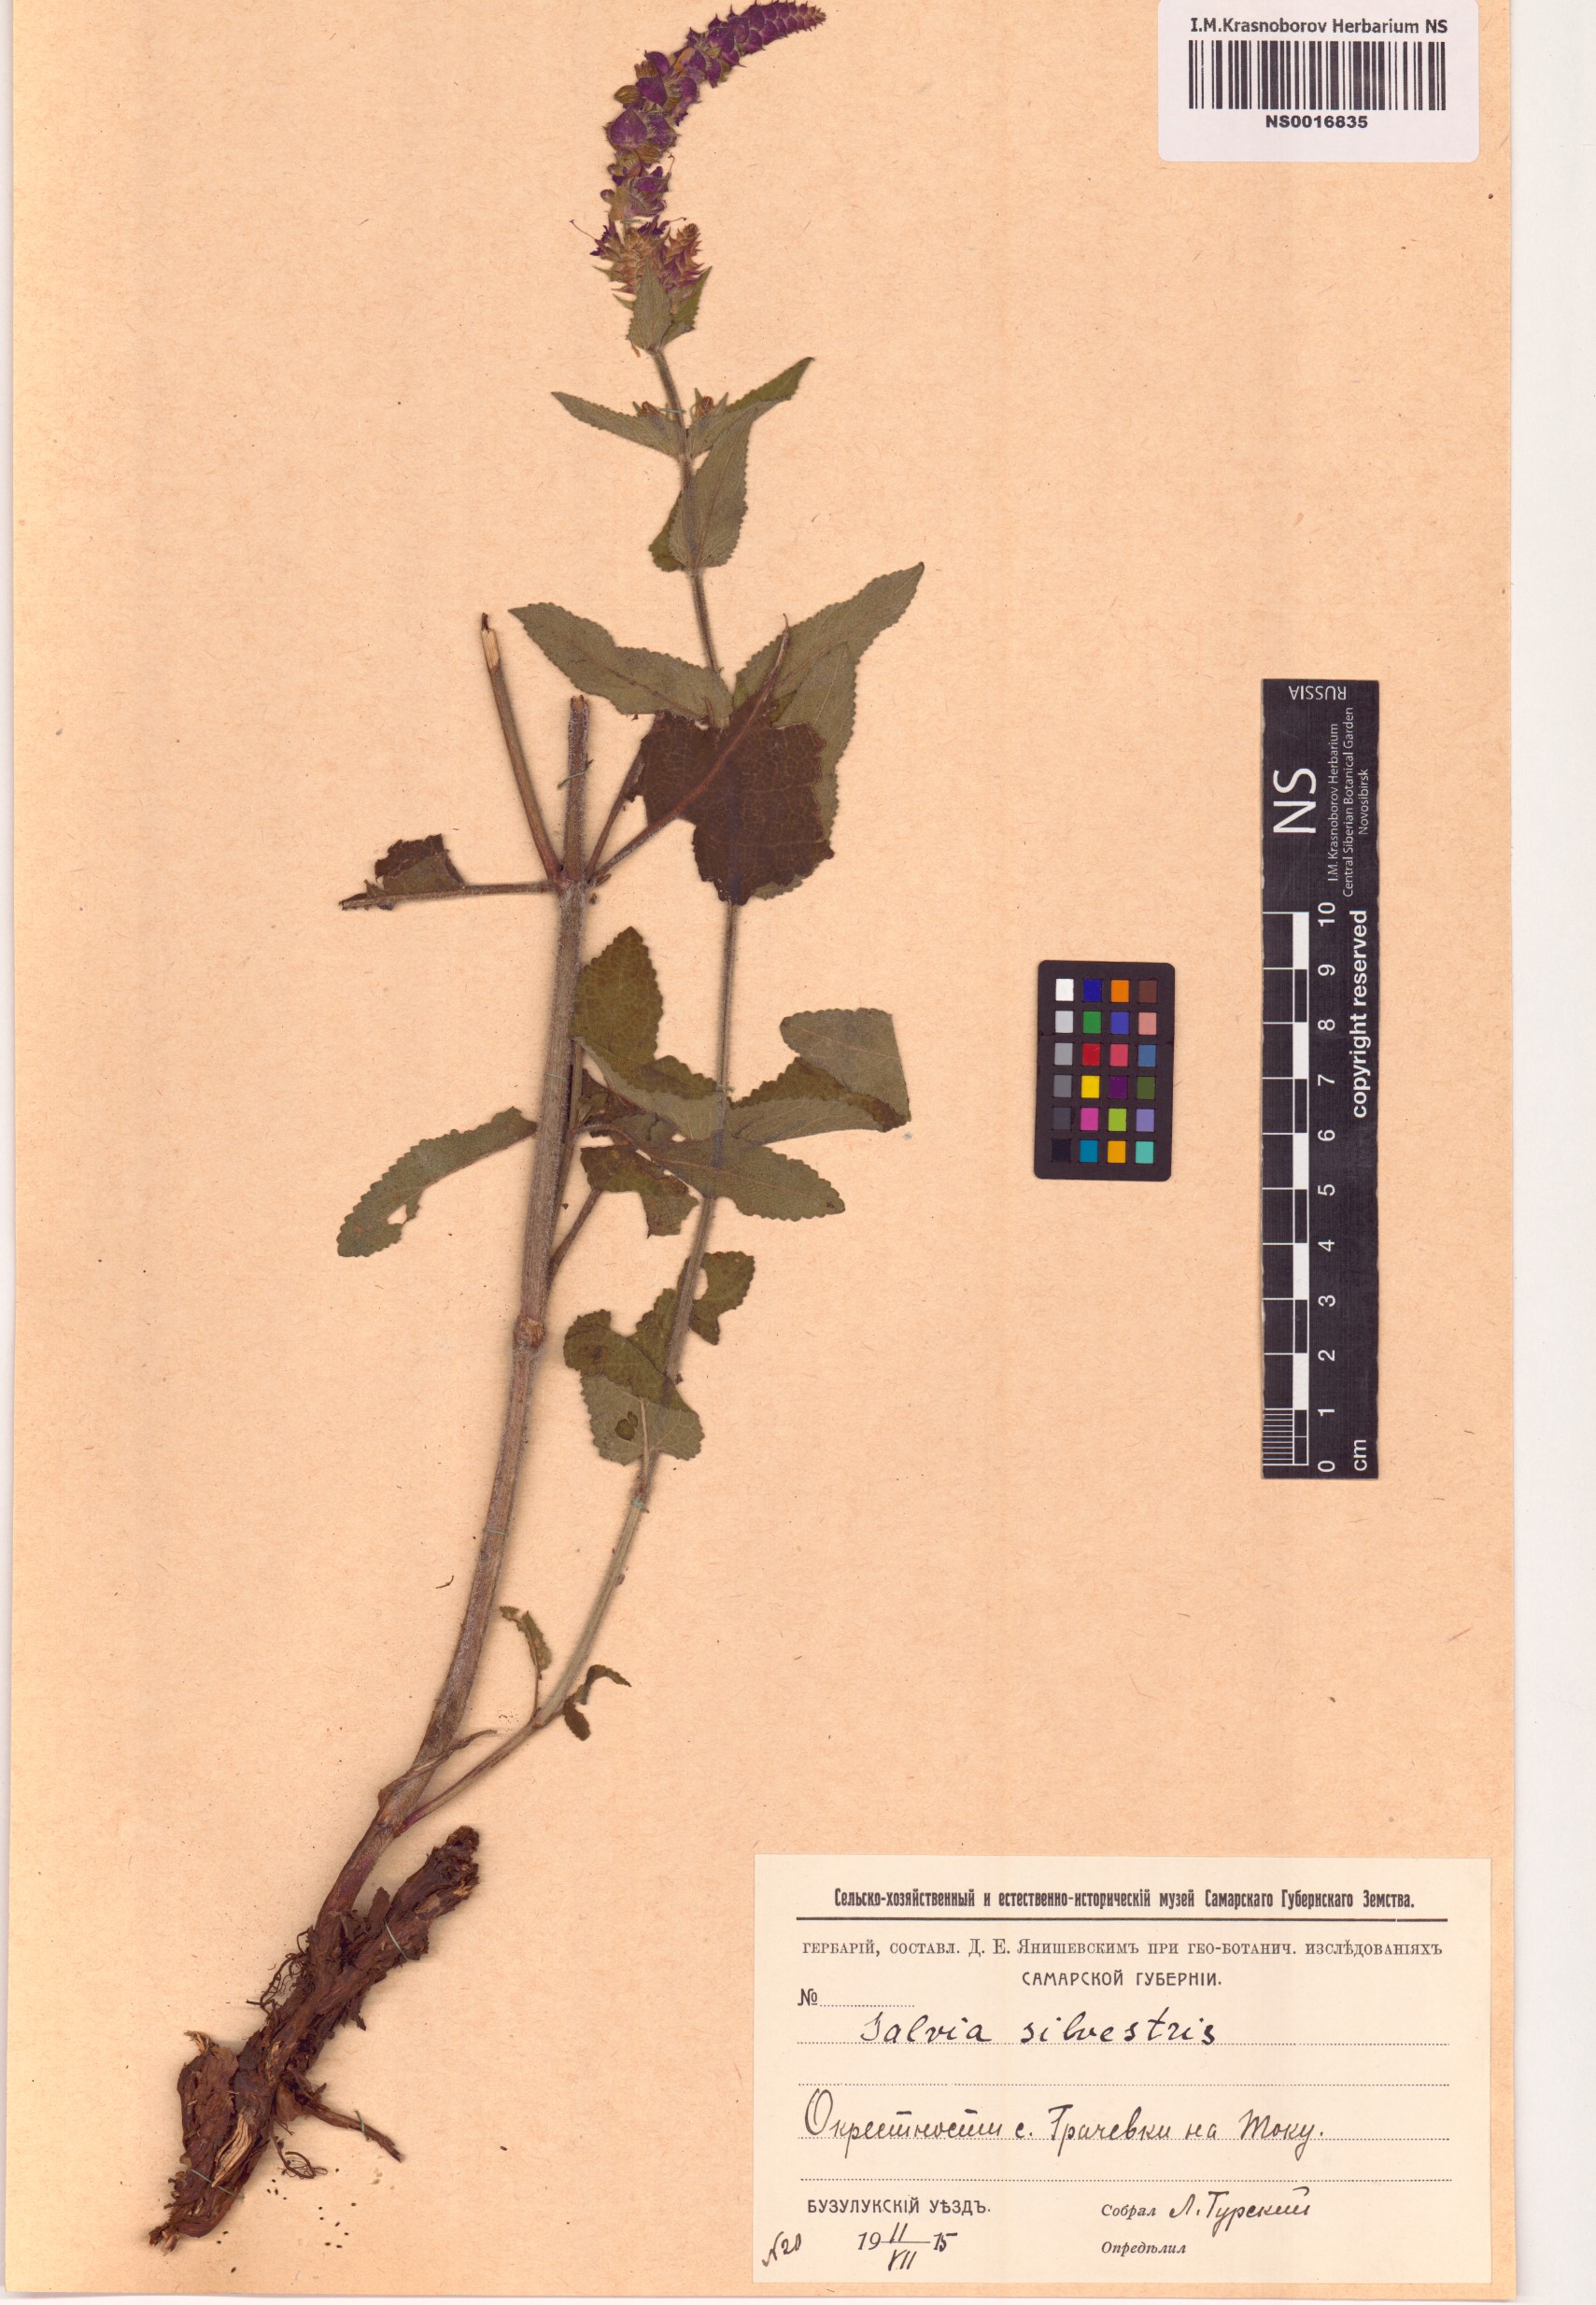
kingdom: Plantae
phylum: Tracheophyta
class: Magnoliopsida
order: Lamiales
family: Lamiaceae
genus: Salvia
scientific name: Salvia sylvestris
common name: Woodland sage
